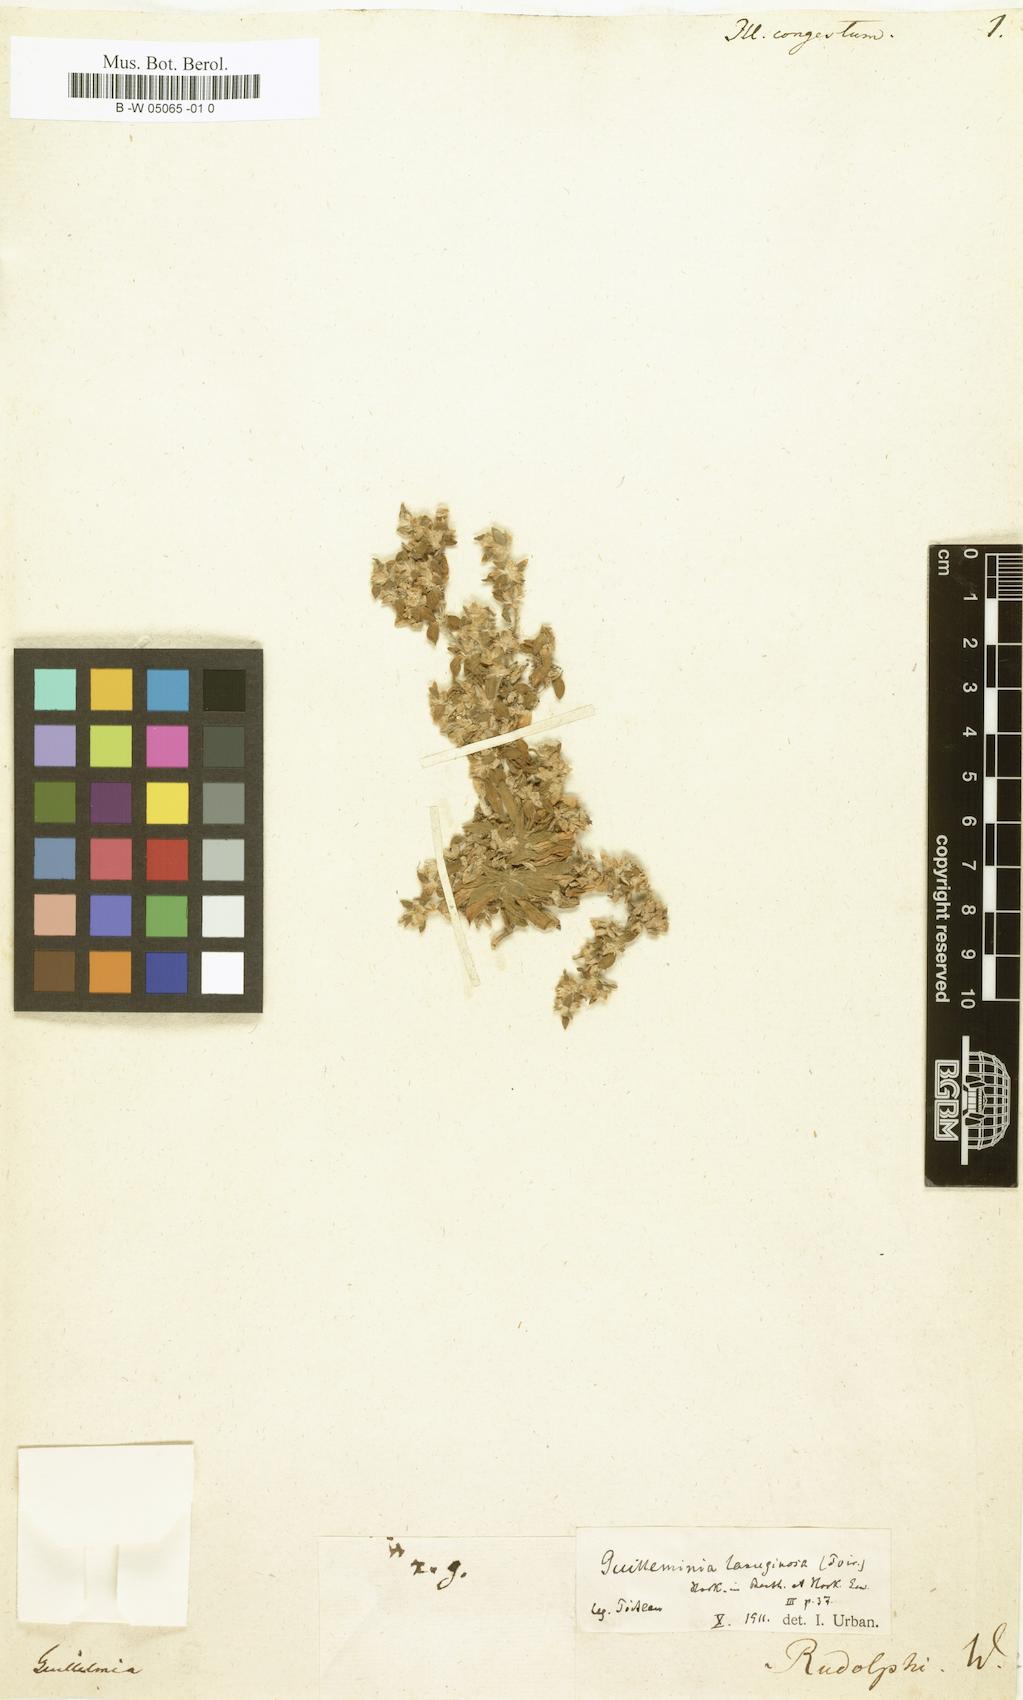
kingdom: Plantae
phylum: Tracheophyta
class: Magnoliopsida
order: Caryophyllales
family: Caryophyllaceae
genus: Illecebrum
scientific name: Illecebrum congestum
